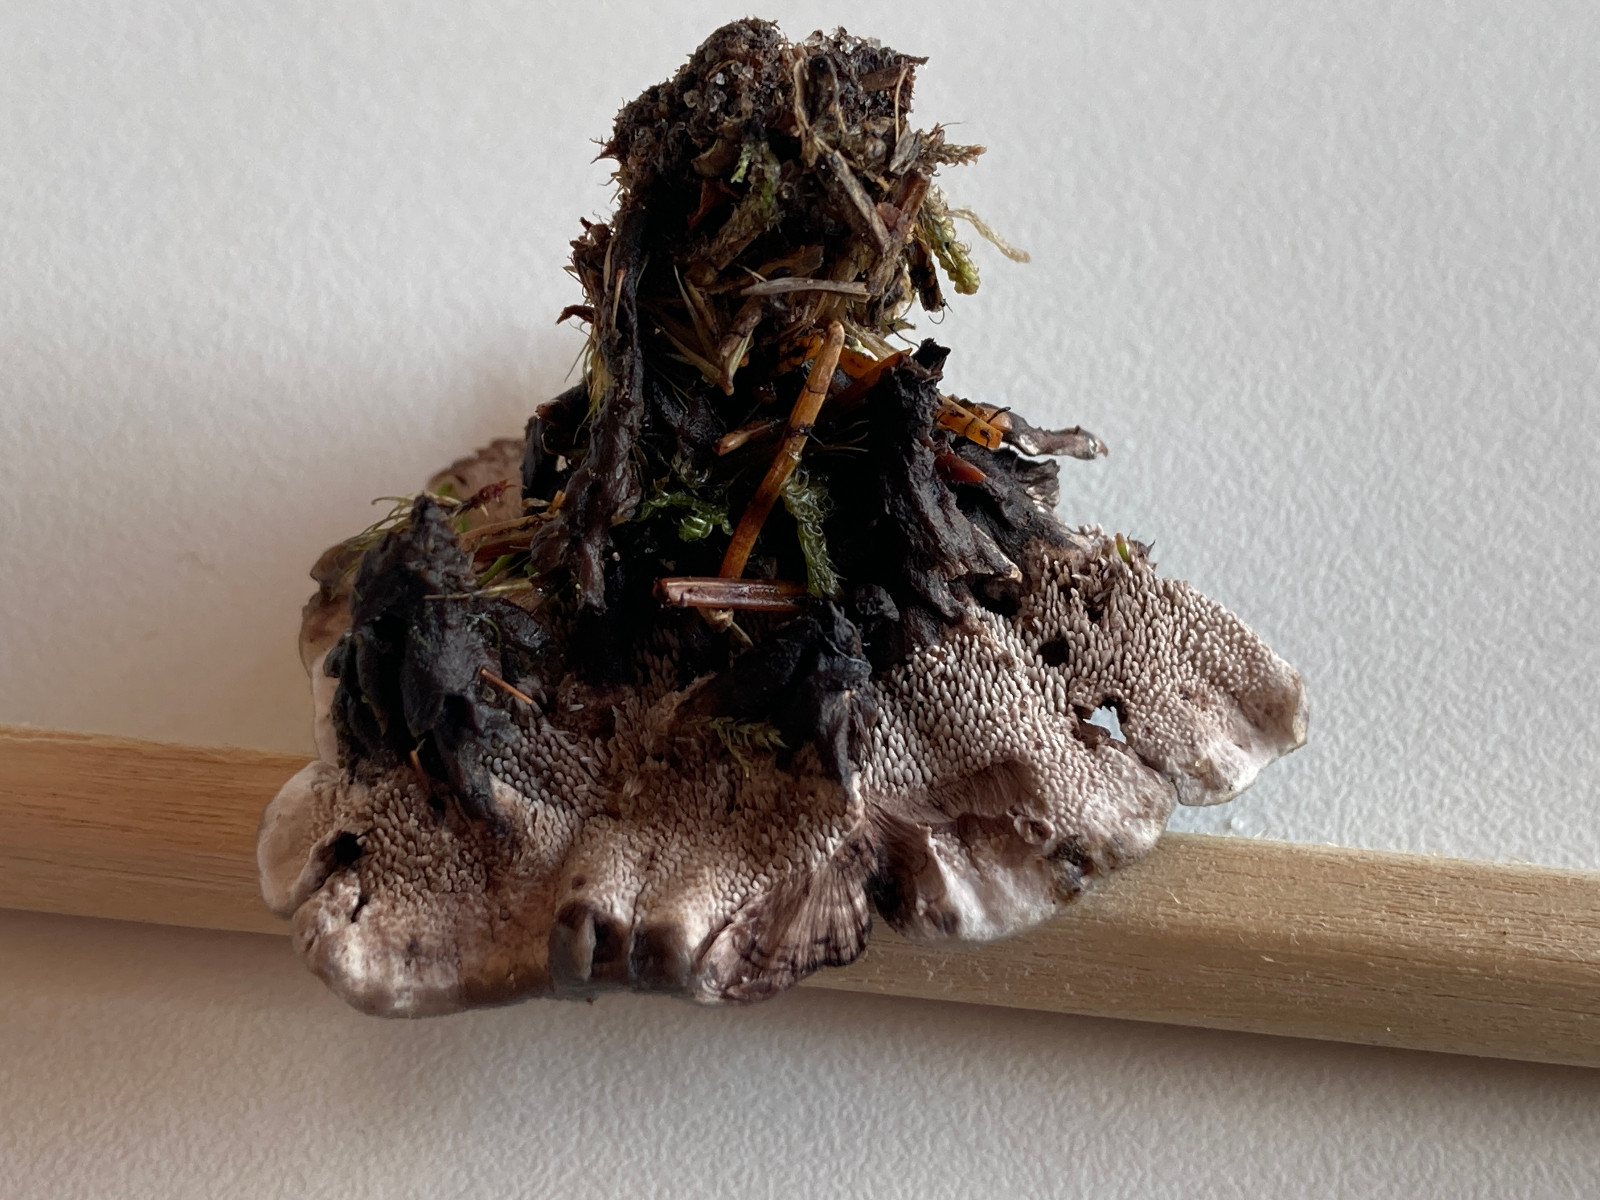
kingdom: Fungi
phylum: Basidiomycota
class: Agaricomycetes
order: Thelephorales
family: Thelephoraceae
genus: Phellodon
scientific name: Phellodon tomentosus
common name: vellugtende duftpigsvamp
